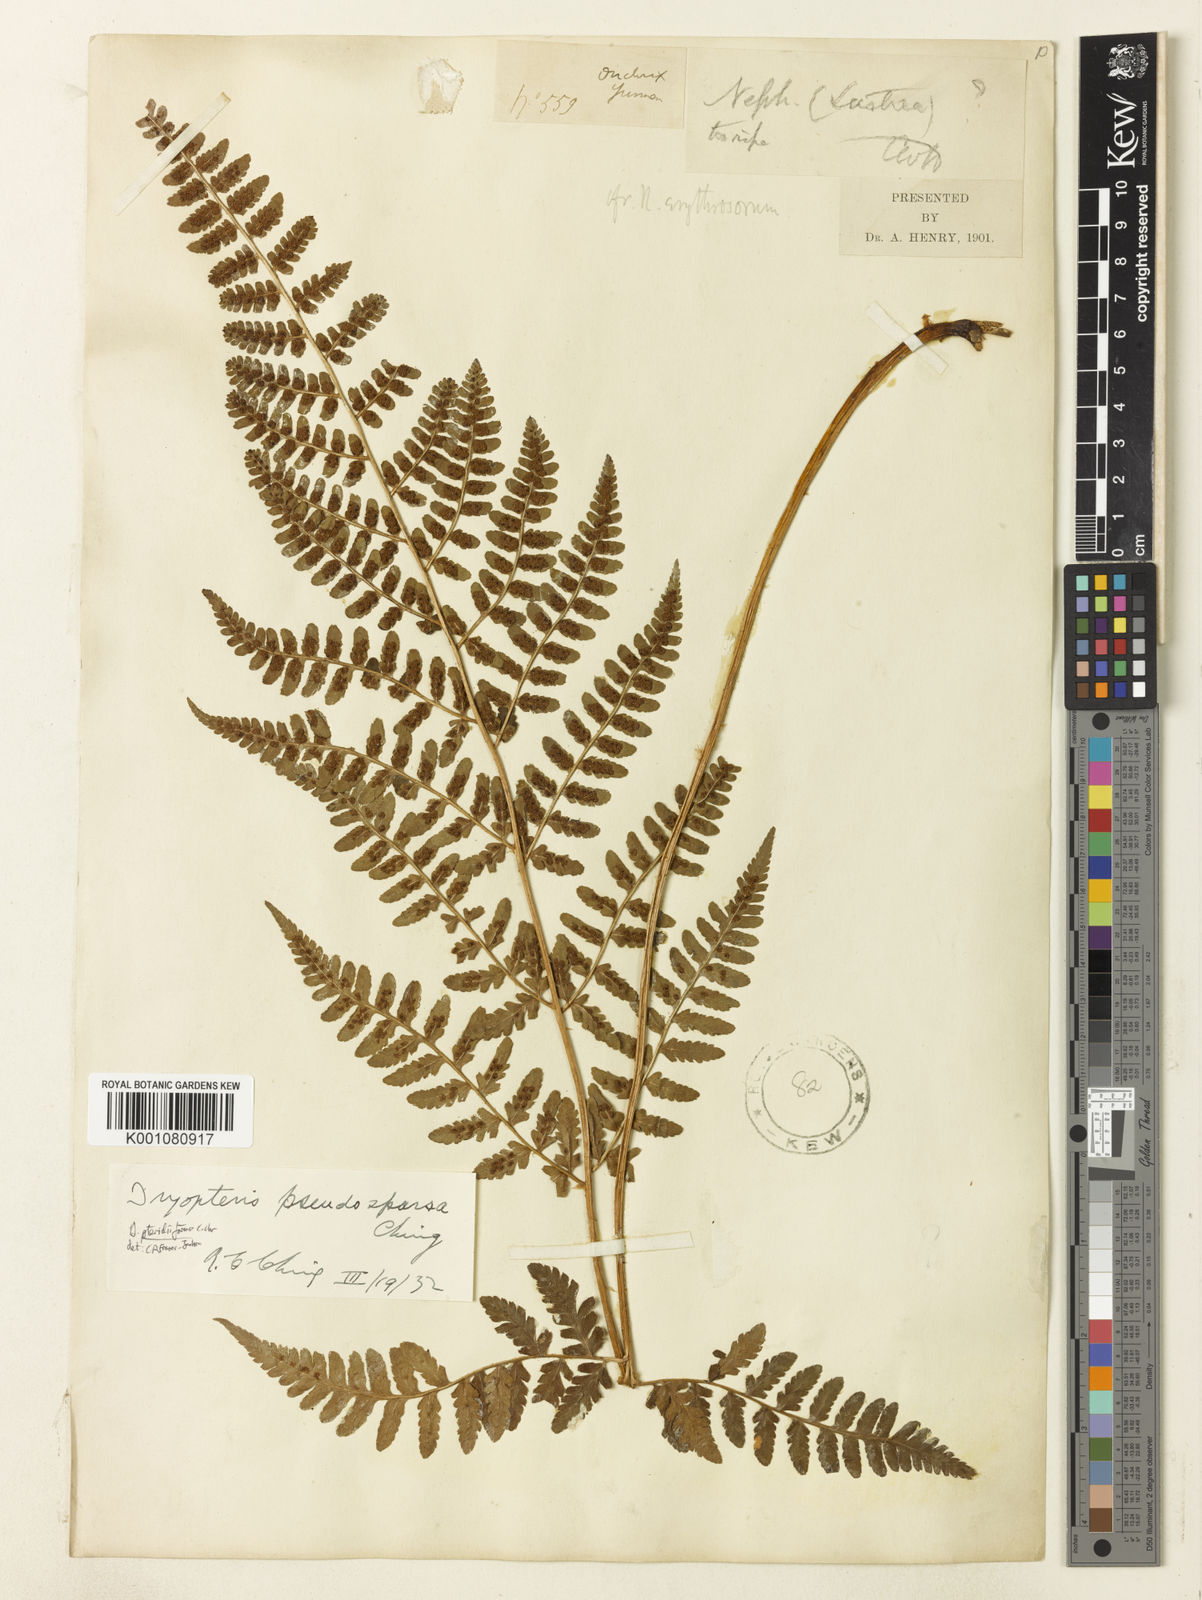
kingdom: Plantae
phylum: Tracheophyta
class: Polypodiopsida
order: Polypodiales
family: Dryopteridaceae
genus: Dryopteris
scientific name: Dryopteris pseudosparsa
